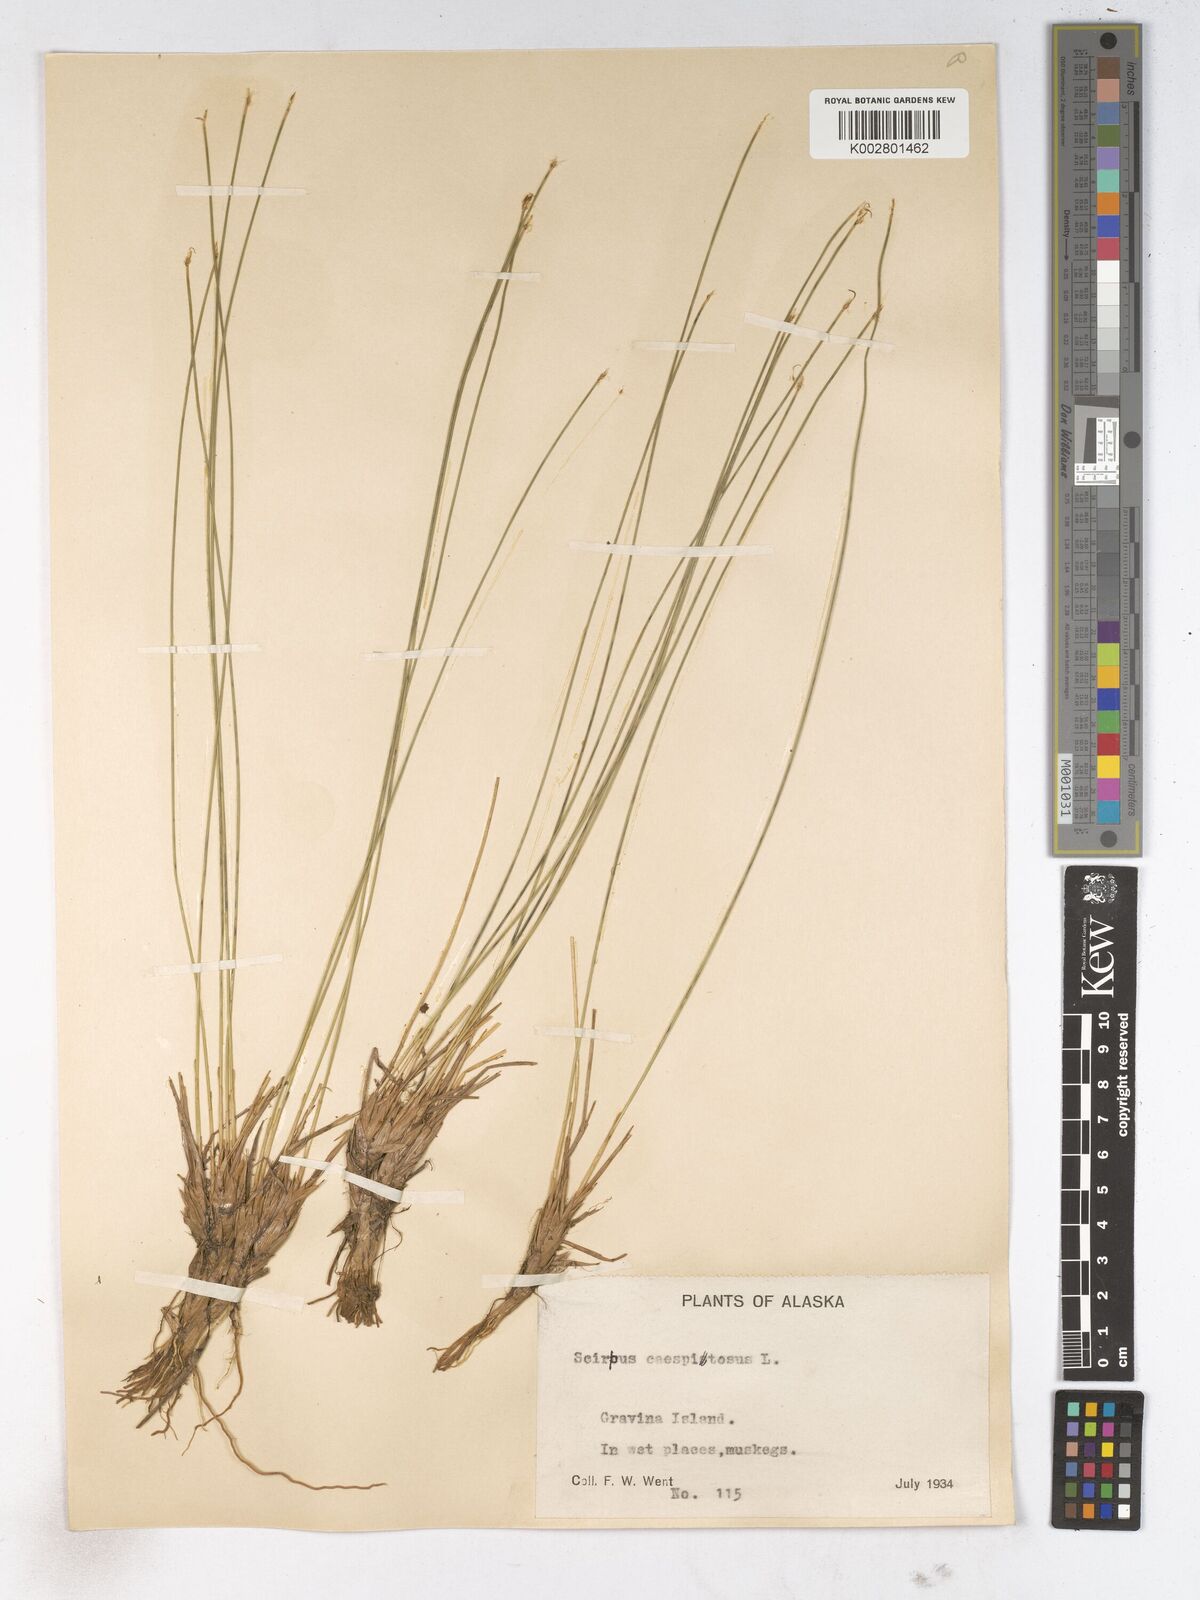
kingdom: Plantae
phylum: Tracheophyta
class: Liliopsida
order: Poales
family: Cyperaceae
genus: Trichophorum
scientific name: Trichophorum cespitosum
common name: Cespitose bulrush
